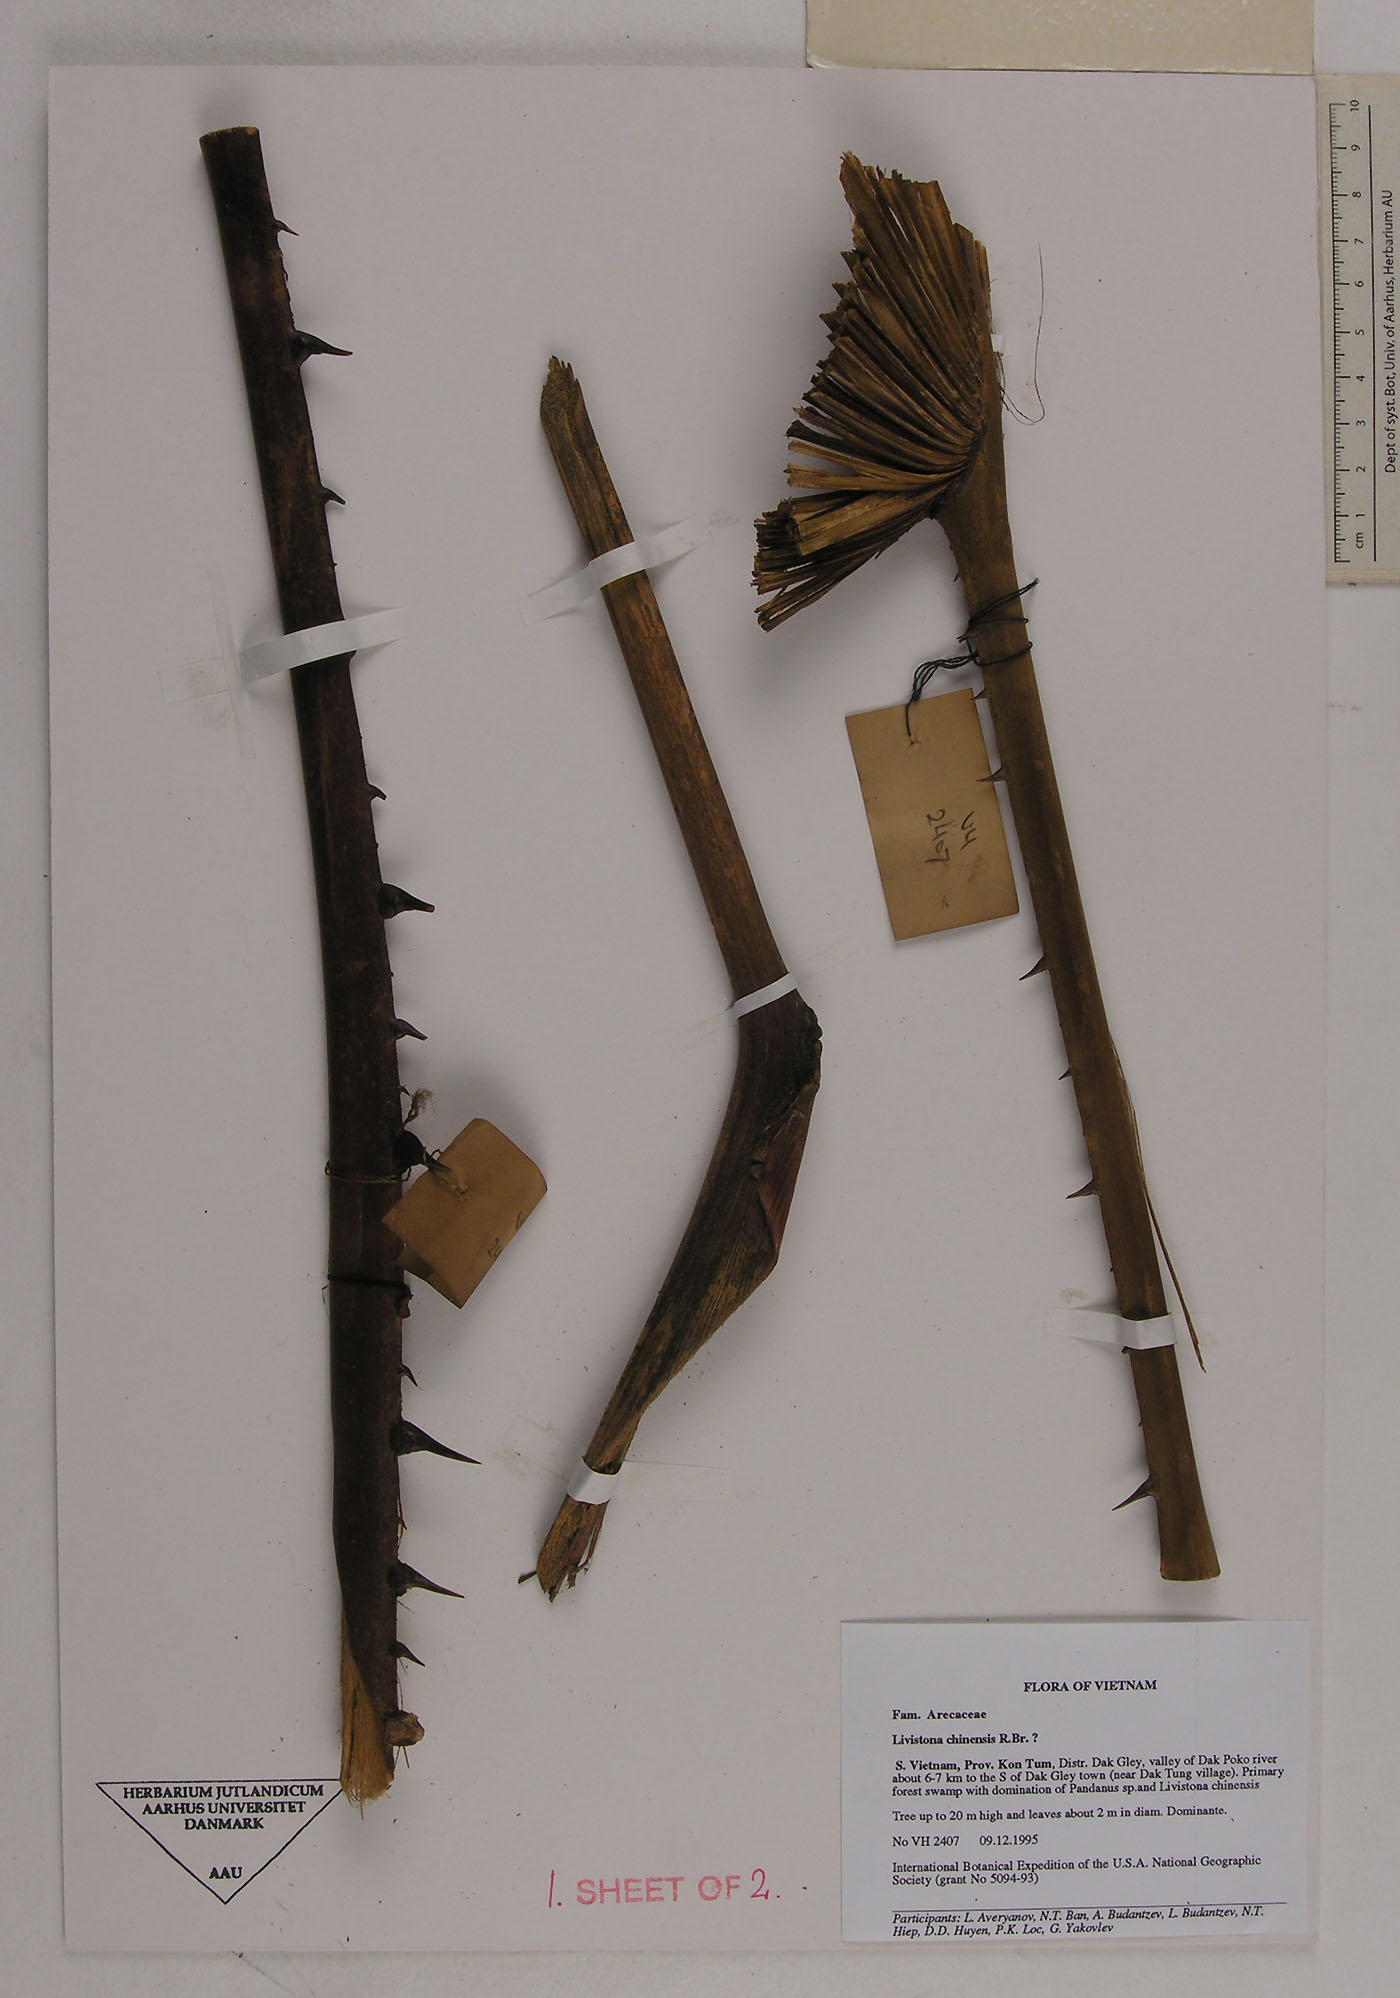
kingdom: Plantae
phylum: Tracheophyta
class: Liliopsida
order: Arecales
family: Arecaceae
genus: Livistona
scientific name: Livistona chinensis
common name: Fountain palm
